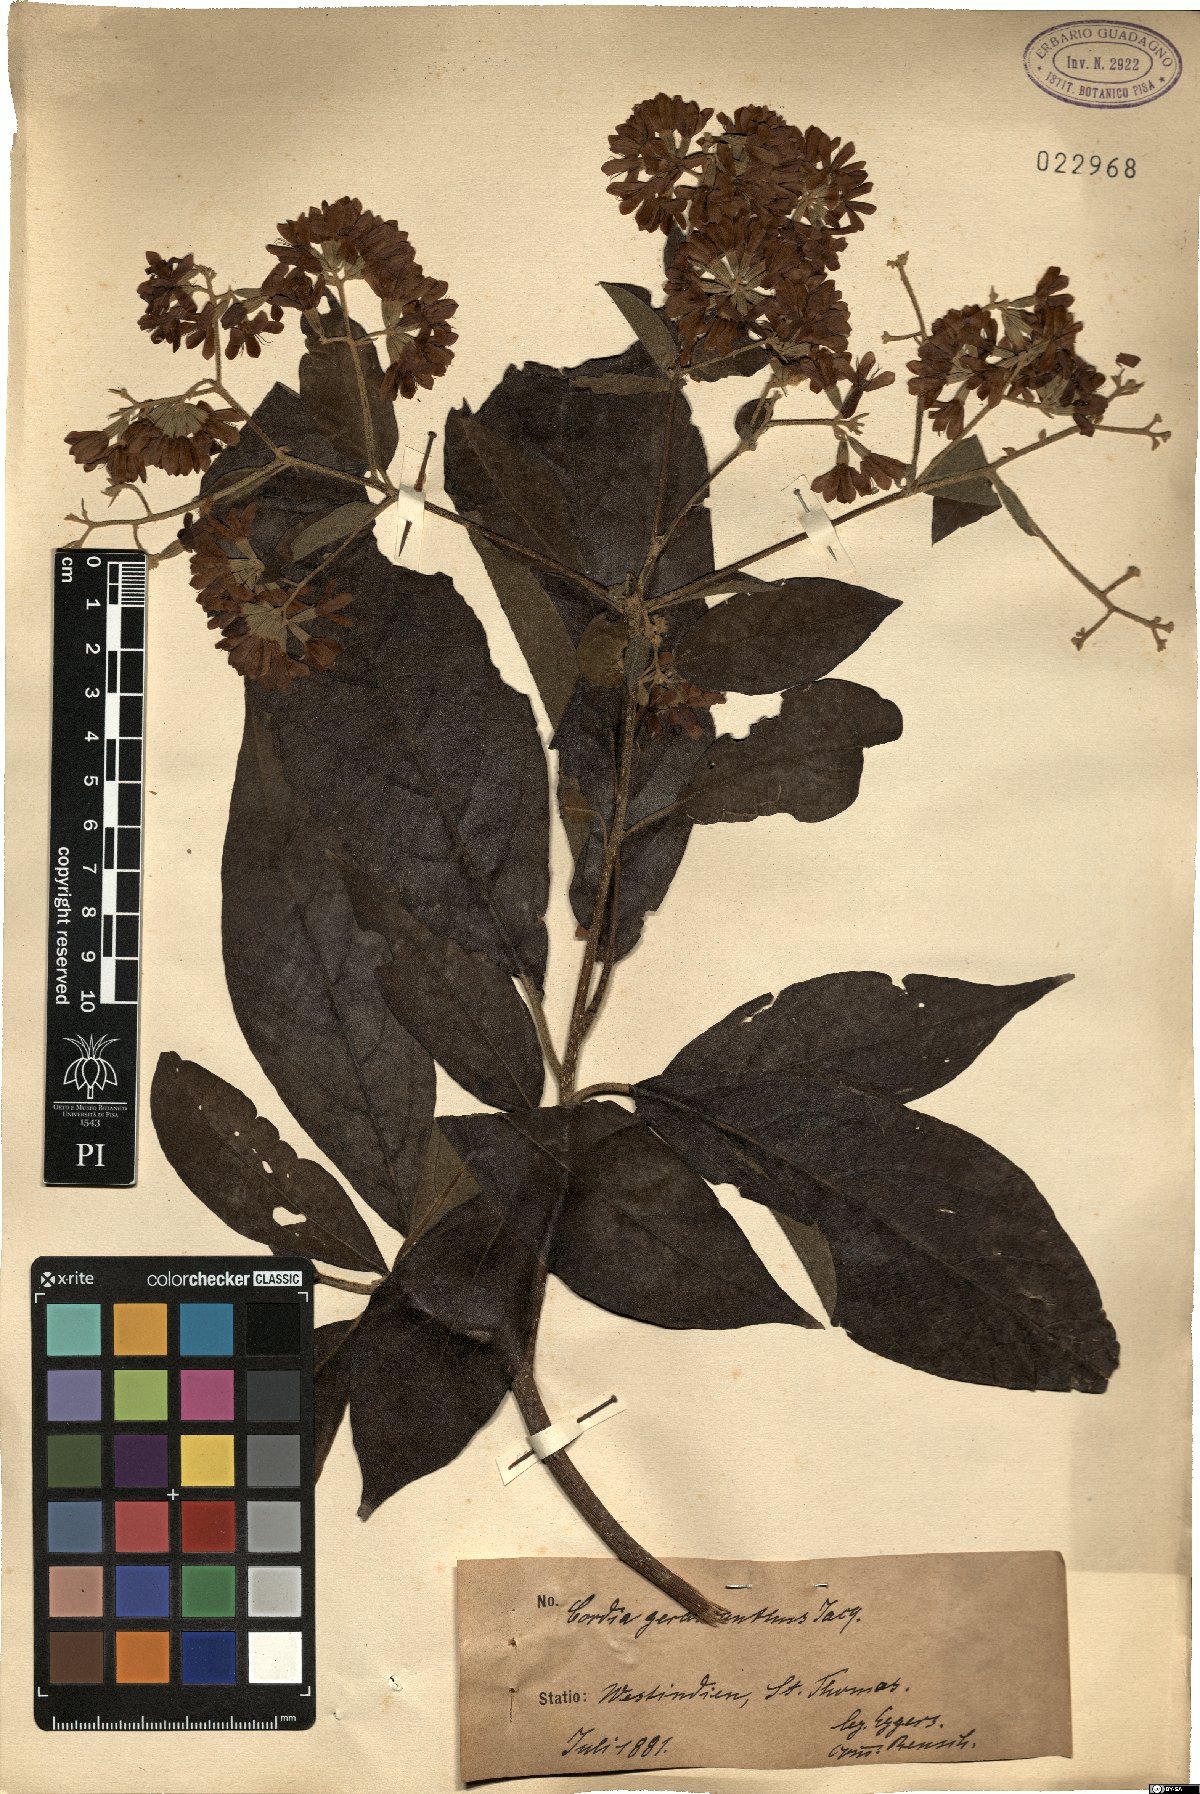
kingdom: Plantae
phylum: Tracheophyta
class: Magnoliopsida
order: Boraginales
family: Cordiaceae
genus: Cordia
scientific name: Cordia trichotoma
